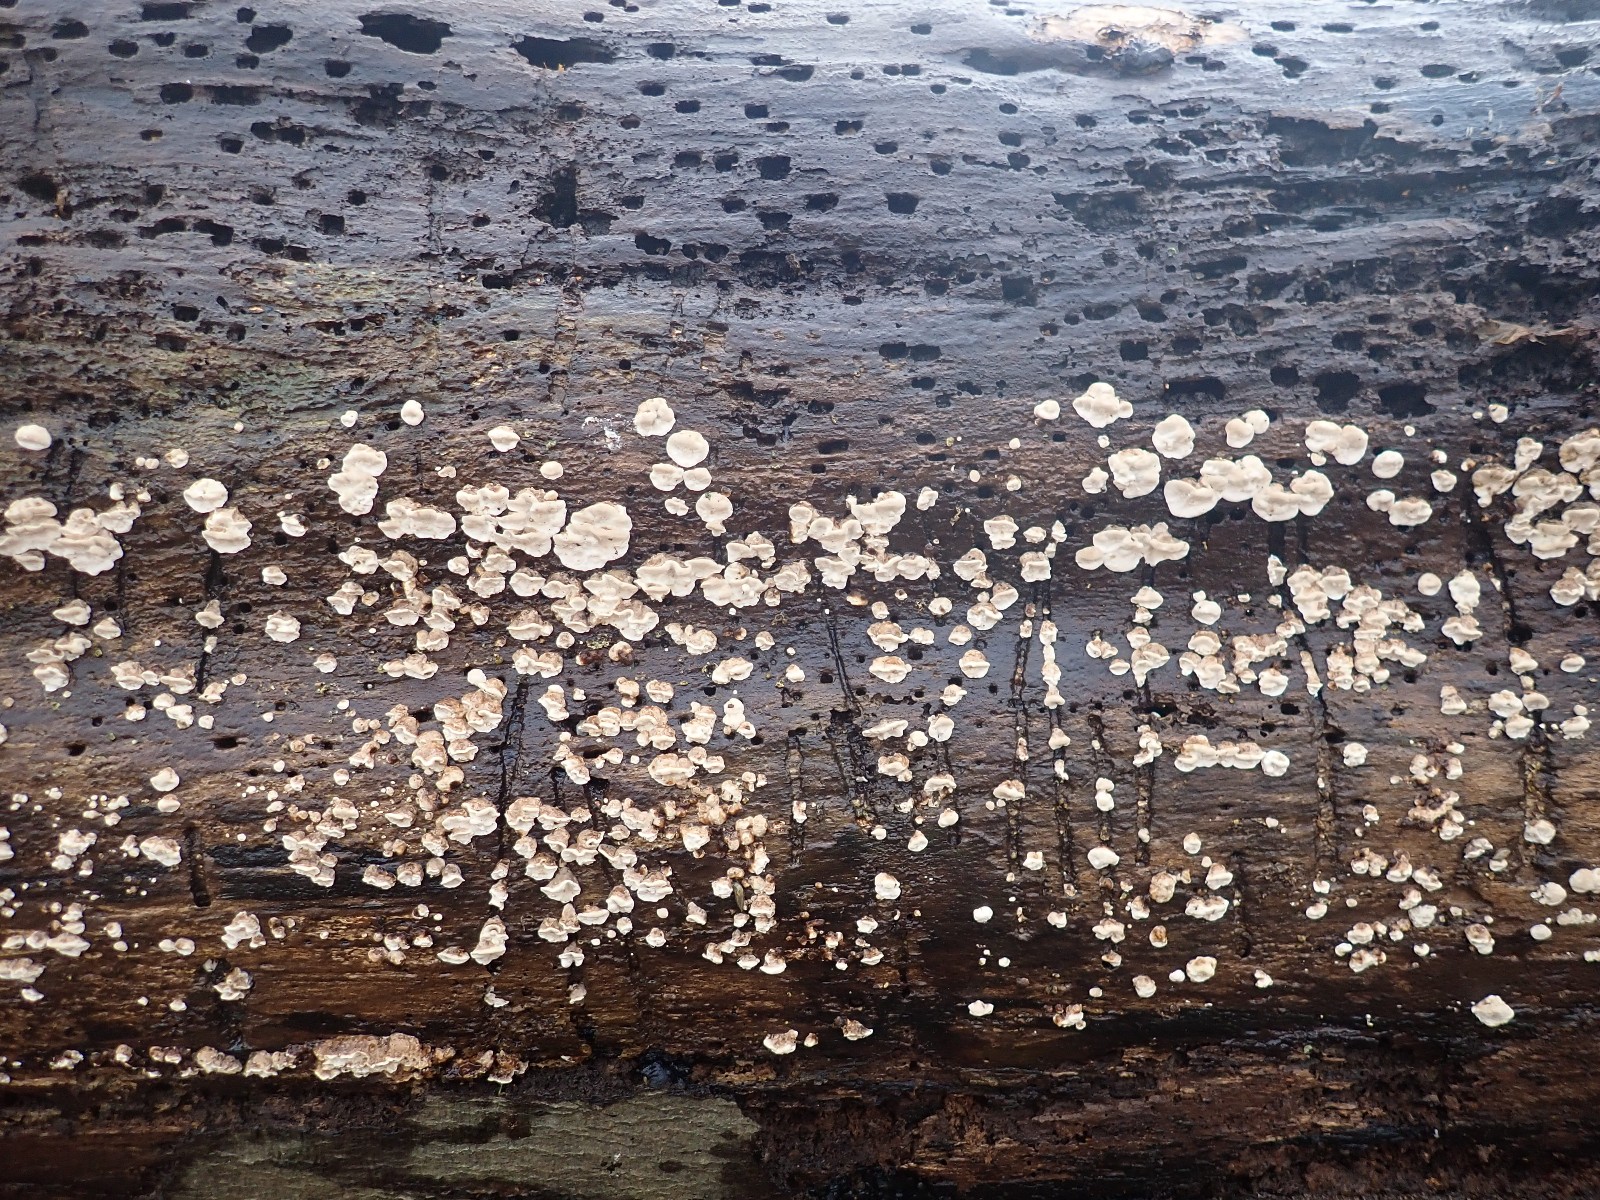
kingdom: Fungi
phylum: Basidiomycota
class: Agaricomycetes
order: Polyporales
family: Polyporaceae
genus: Trametes
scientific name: Trametes versicolor
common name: broget læderporesvamp
